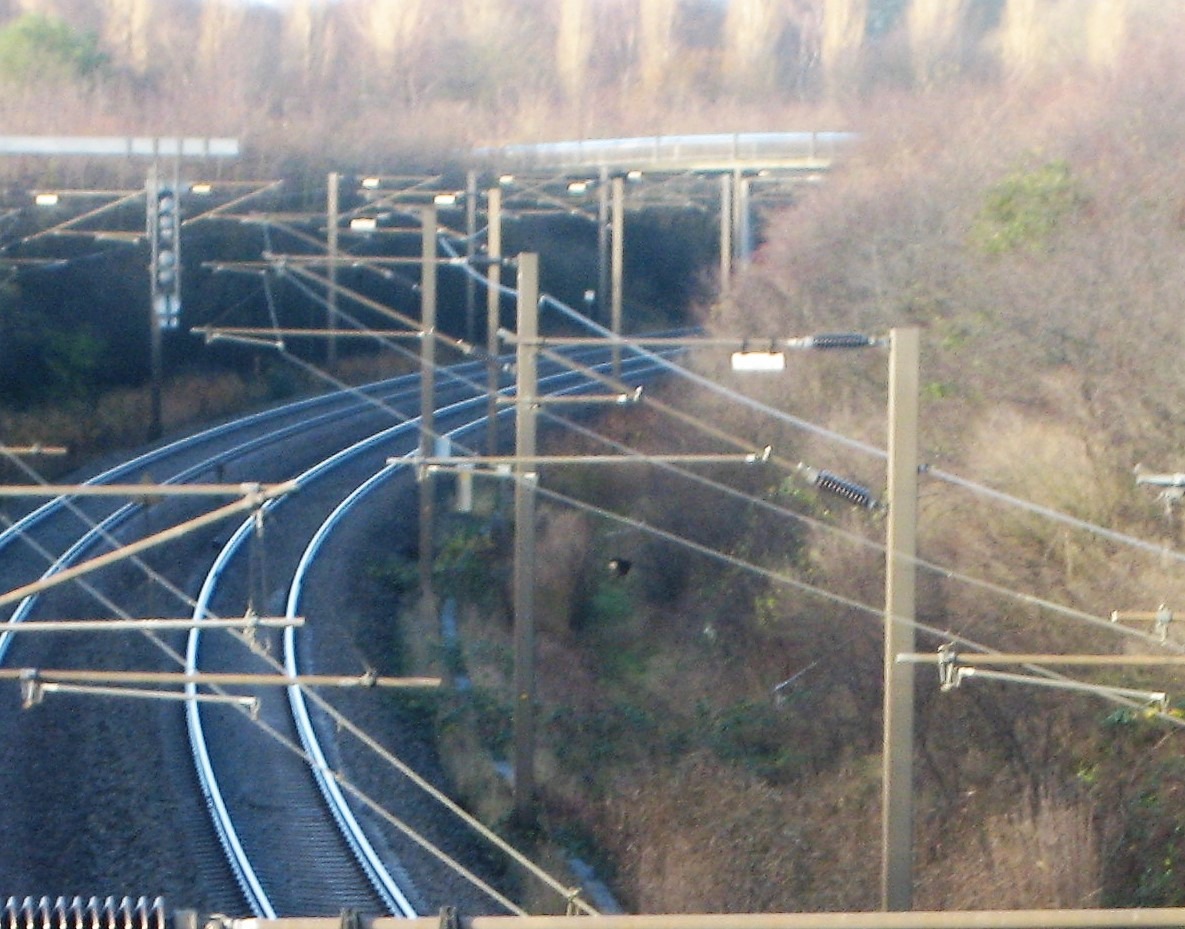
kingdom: Animalia
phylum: Chordata
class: Mammalia
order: Artiodactyla
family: Cervidae
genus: Capreolus
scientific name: Capreolus capreolus
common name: Rådyr
